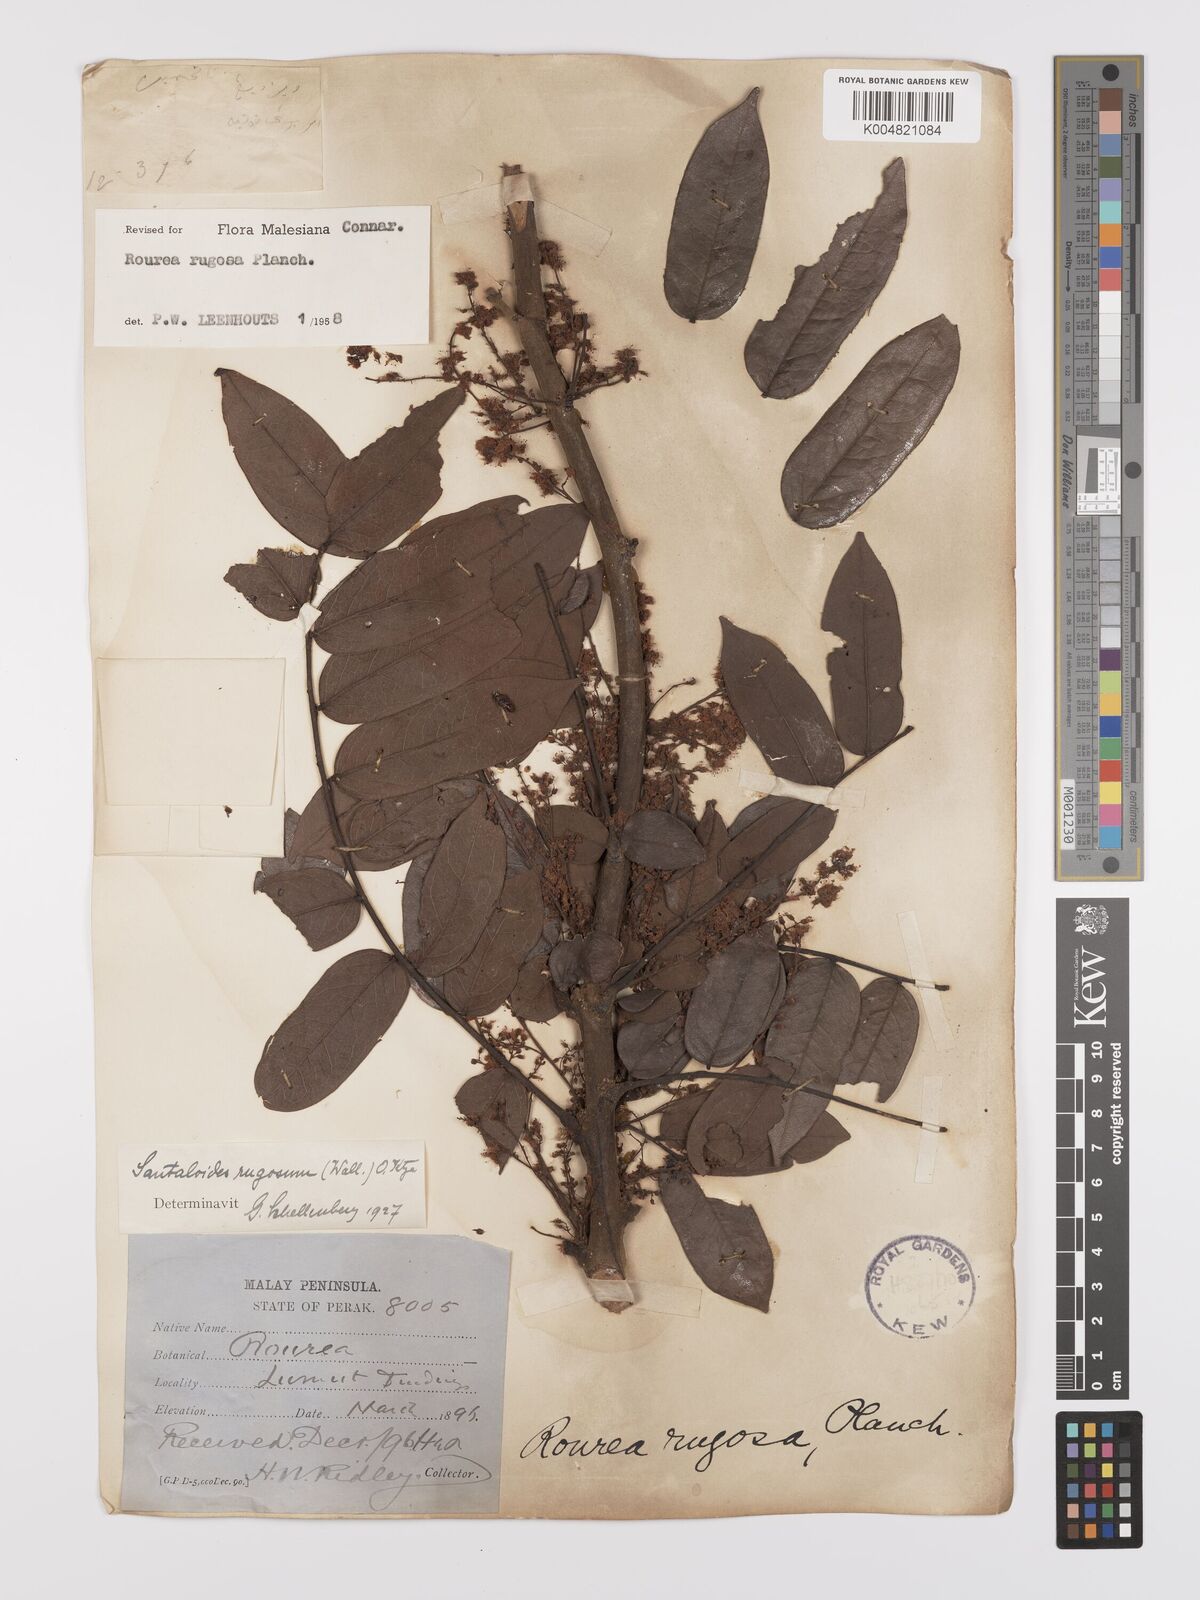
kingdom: Plantae
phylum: Tracheophyta
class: Magnoliopsida
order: Oxalidales
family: Connaraceae
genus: Rourea
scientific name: Rourea rugosa
